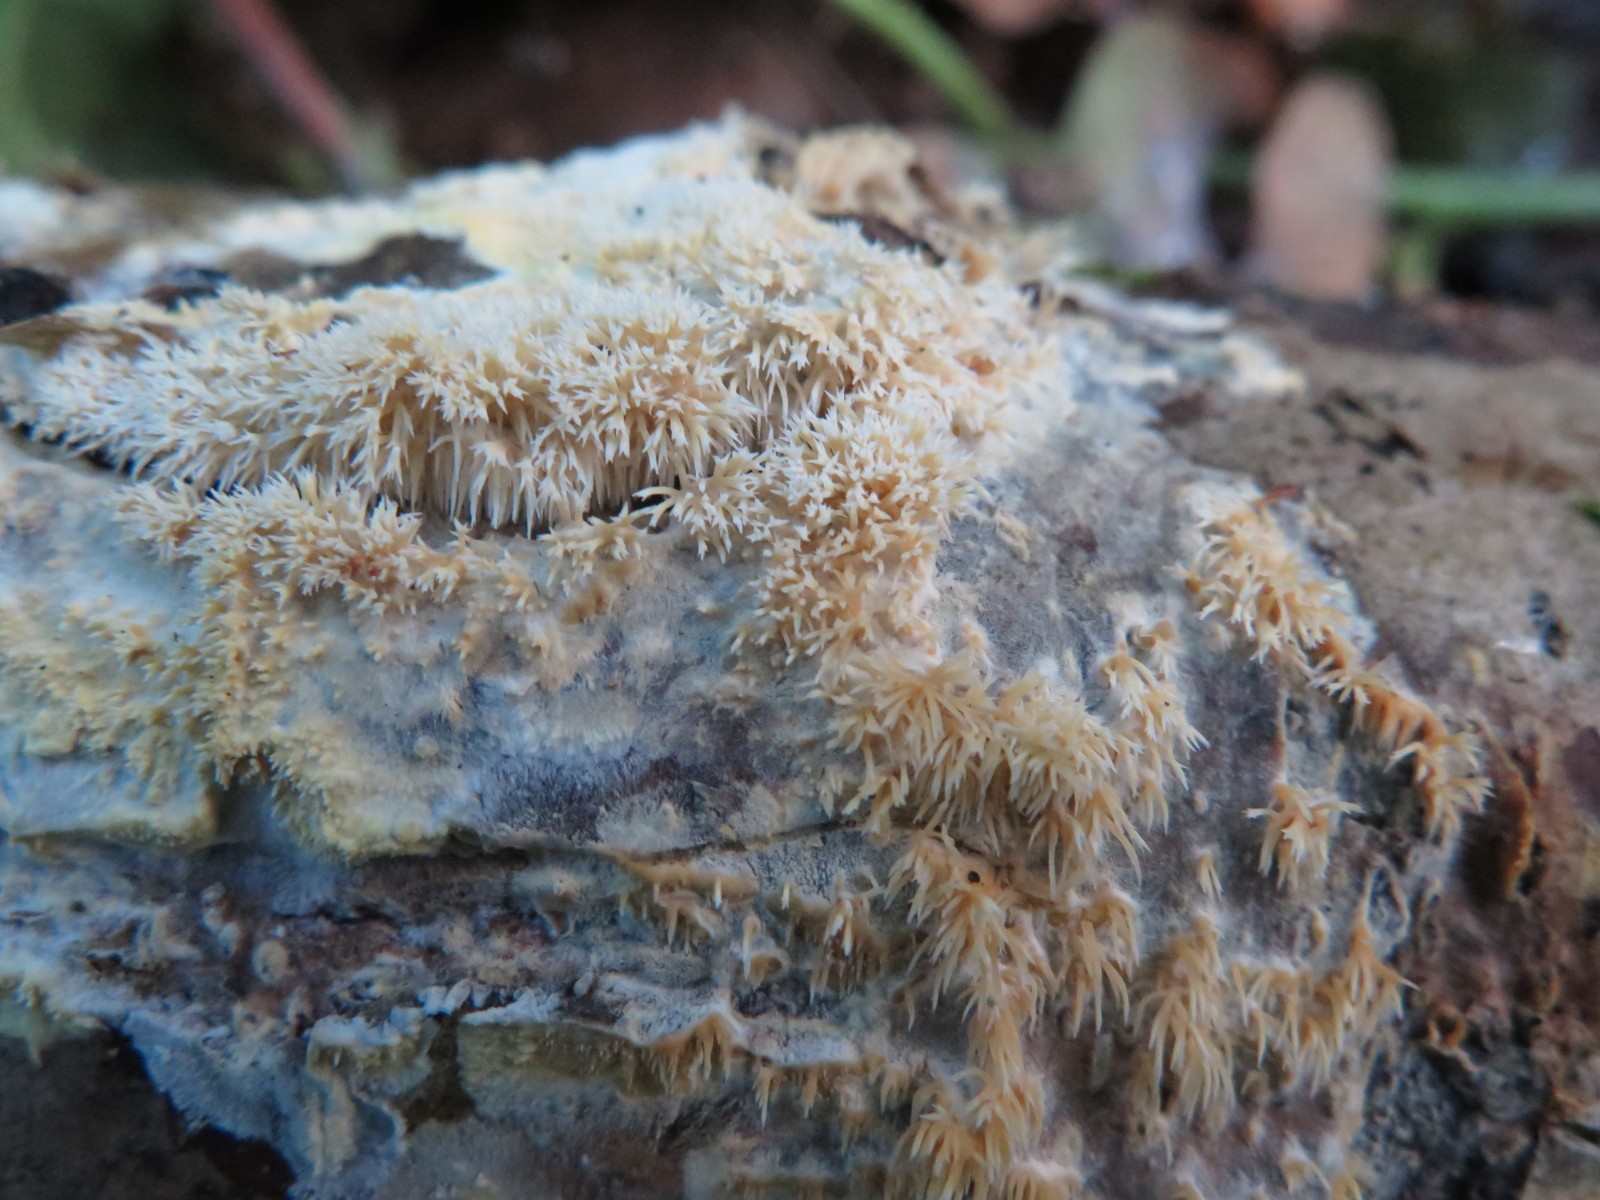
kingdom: Fungi
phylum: Basidiomycota
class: Agaricomycetes
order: Polyporales
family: Meruliaceae
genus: Mycoacia
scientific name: Mycoacia aurea
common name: lang vokspig
